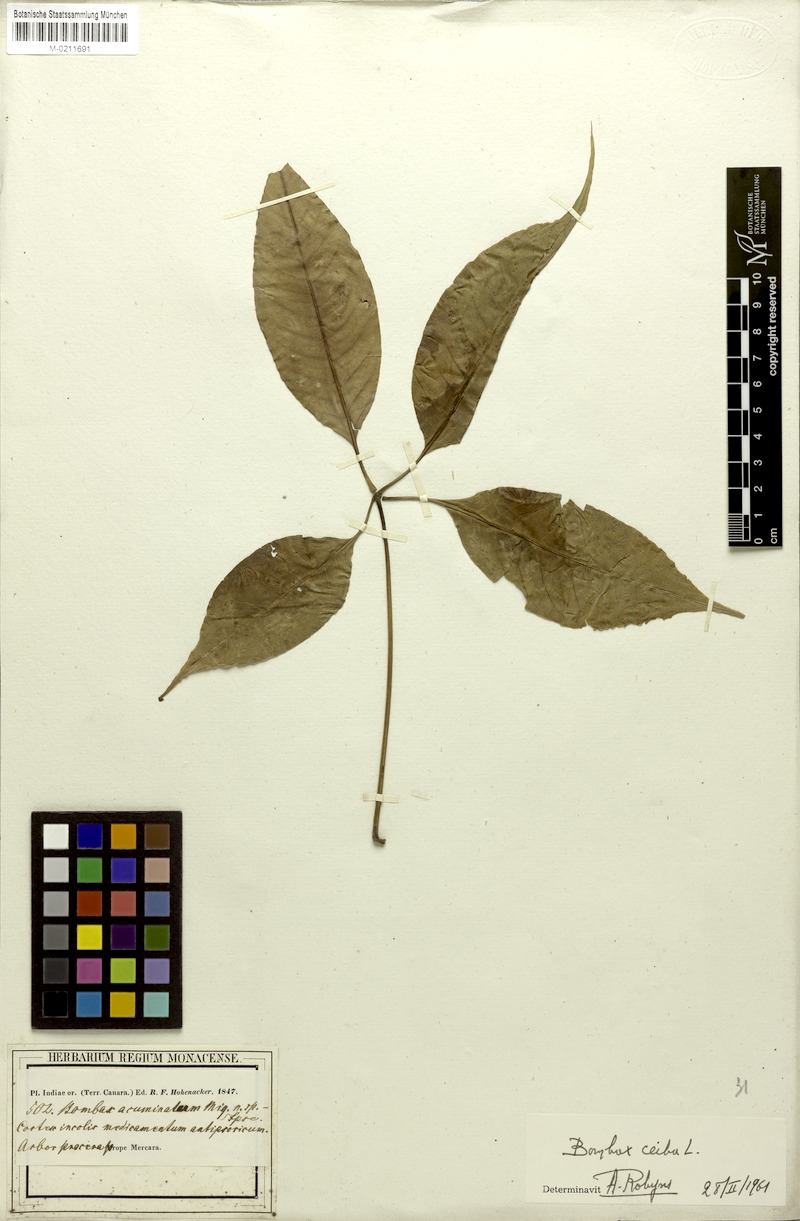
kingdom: Plantae
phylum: Tracheophyta
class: Magnoliopsida
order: Malvales
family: Malvaceae
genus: Bombax
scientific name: Bombax ceiba
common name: Northern-cottonwood
